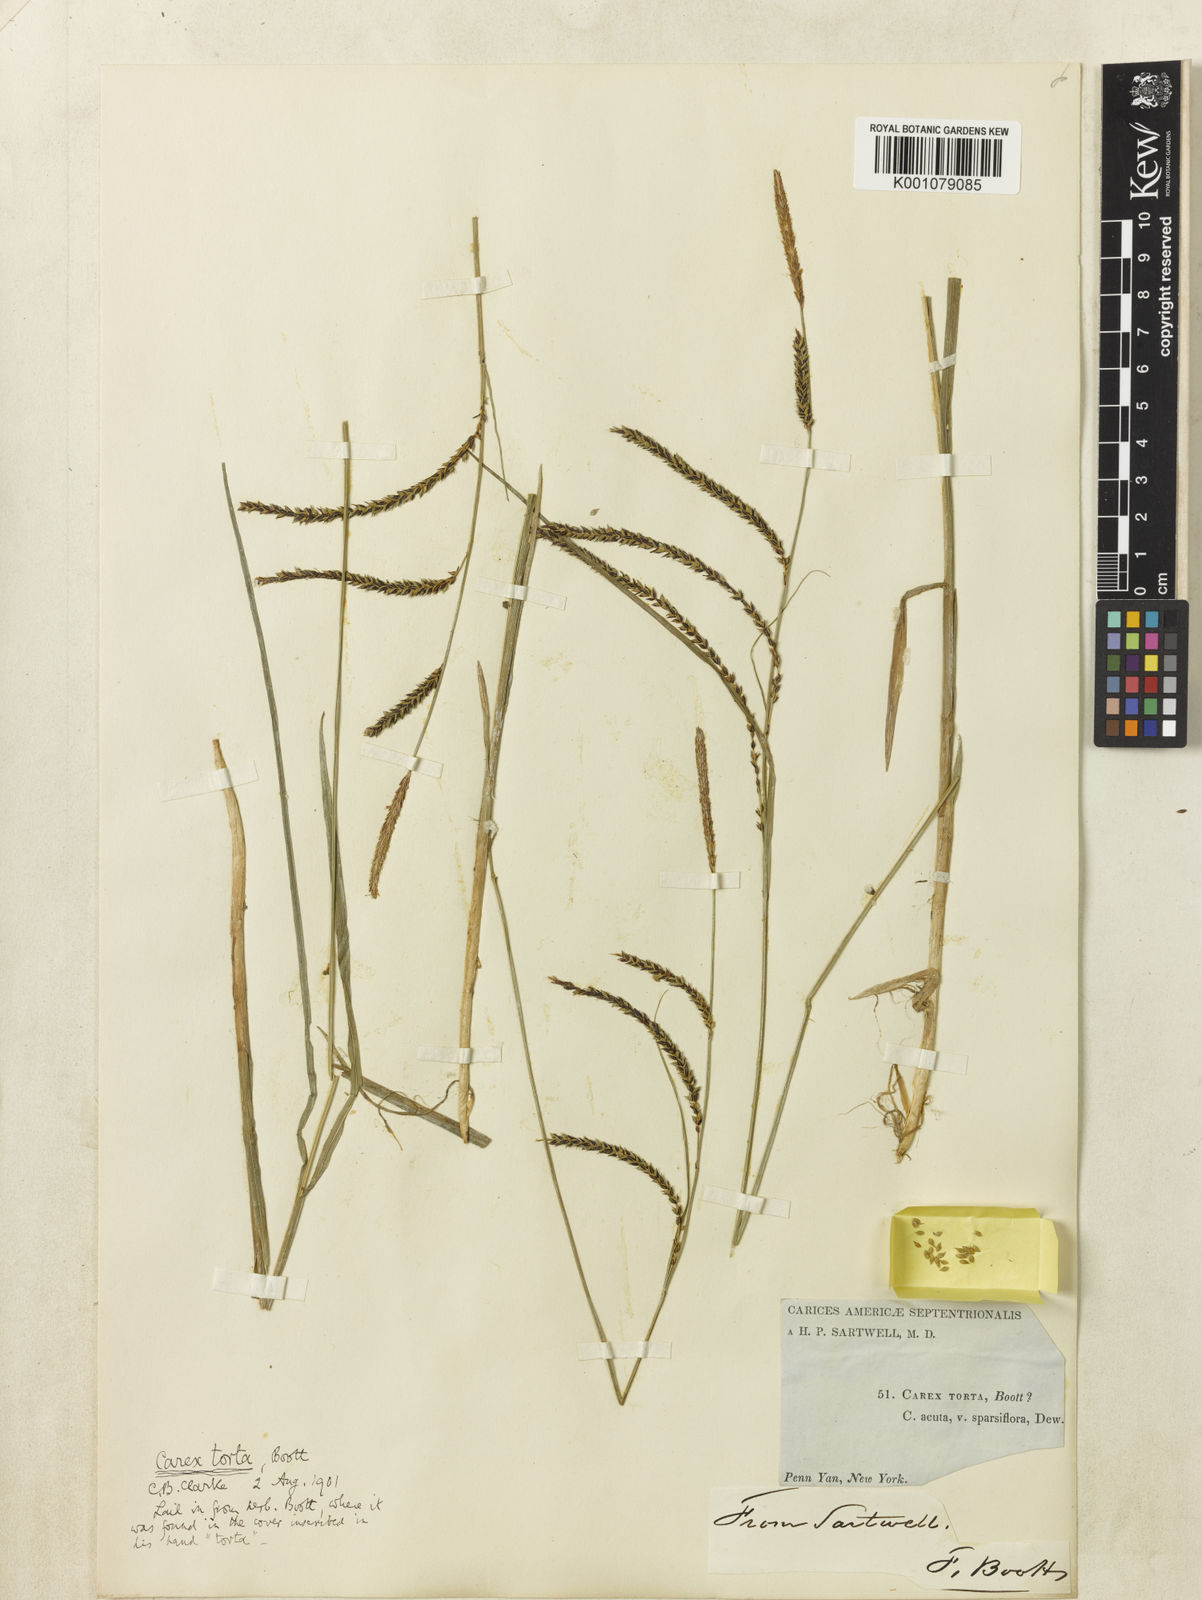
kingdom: Plantae
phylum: Tracheophyta
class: Liliopsida
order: Poales
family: Cyperaceae
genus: Carex
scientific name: Carex torta
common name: Twisted sedge
